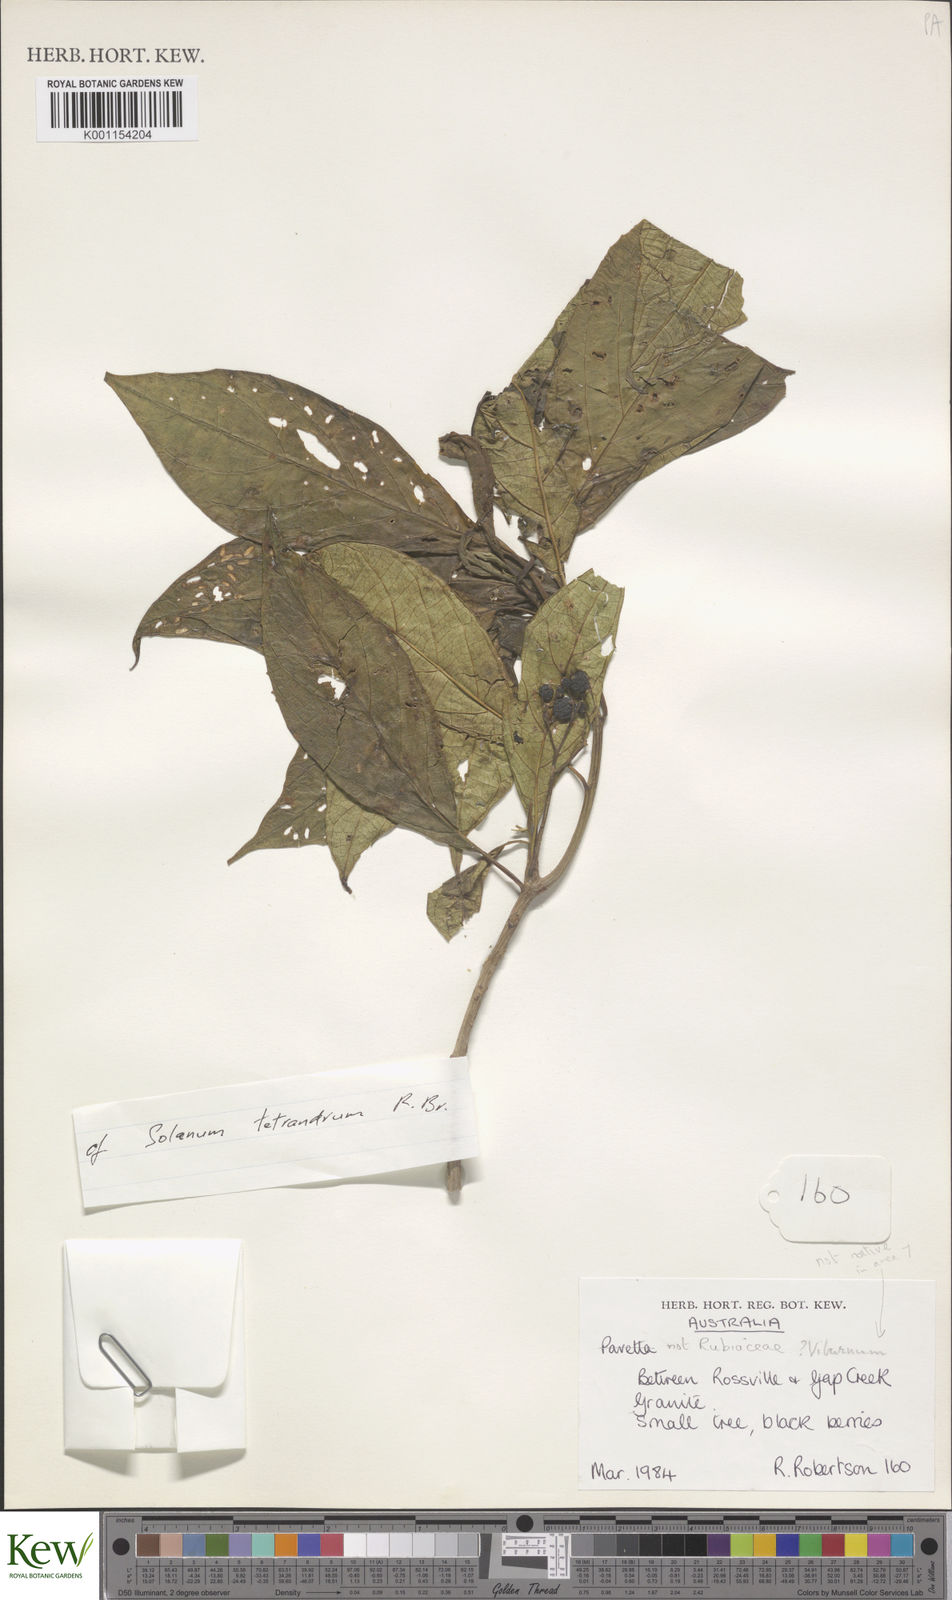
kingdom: Plantae
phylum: Tracheophyta
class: Magnoliopsida
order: Solanales
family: Solanaceae
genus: Solanum
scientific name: Solanum tetrandrum
